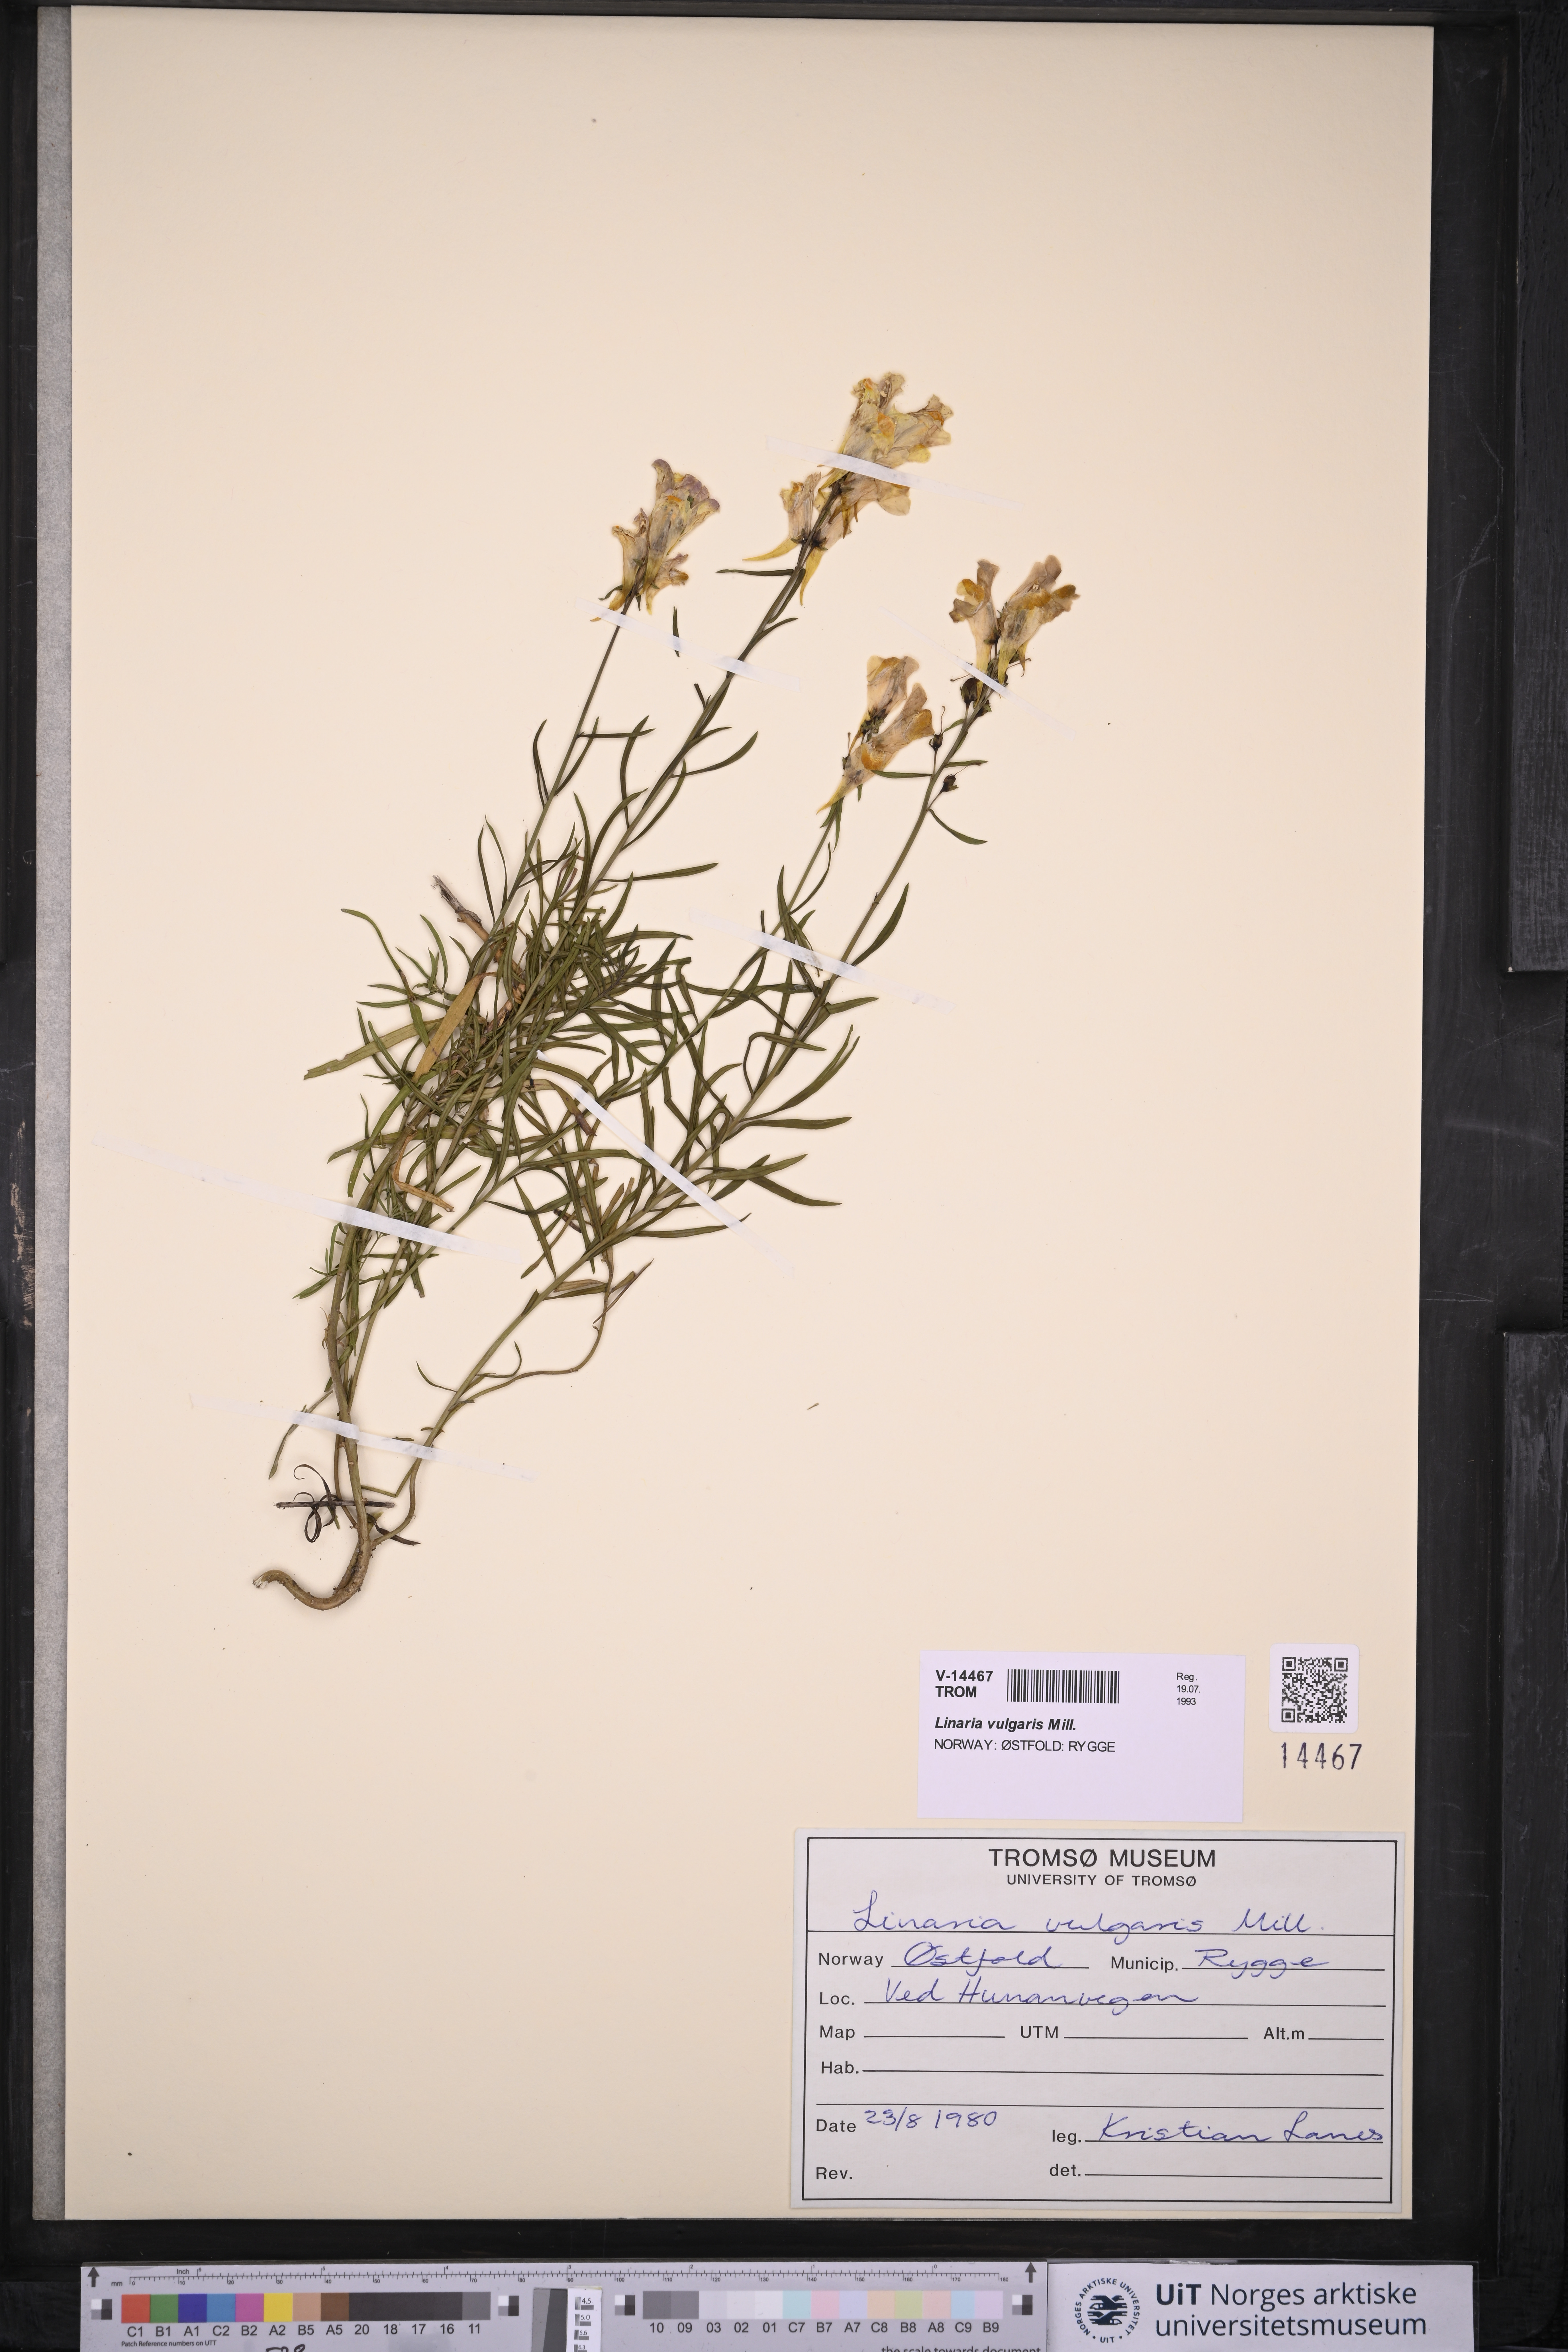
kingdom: Plantae
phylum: Tracheophyta
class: Magnoliopsida
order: Lamiales
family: Plantaginaceae
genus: Linaria
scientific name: Linaria vulgaris
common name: Butter and eggs
